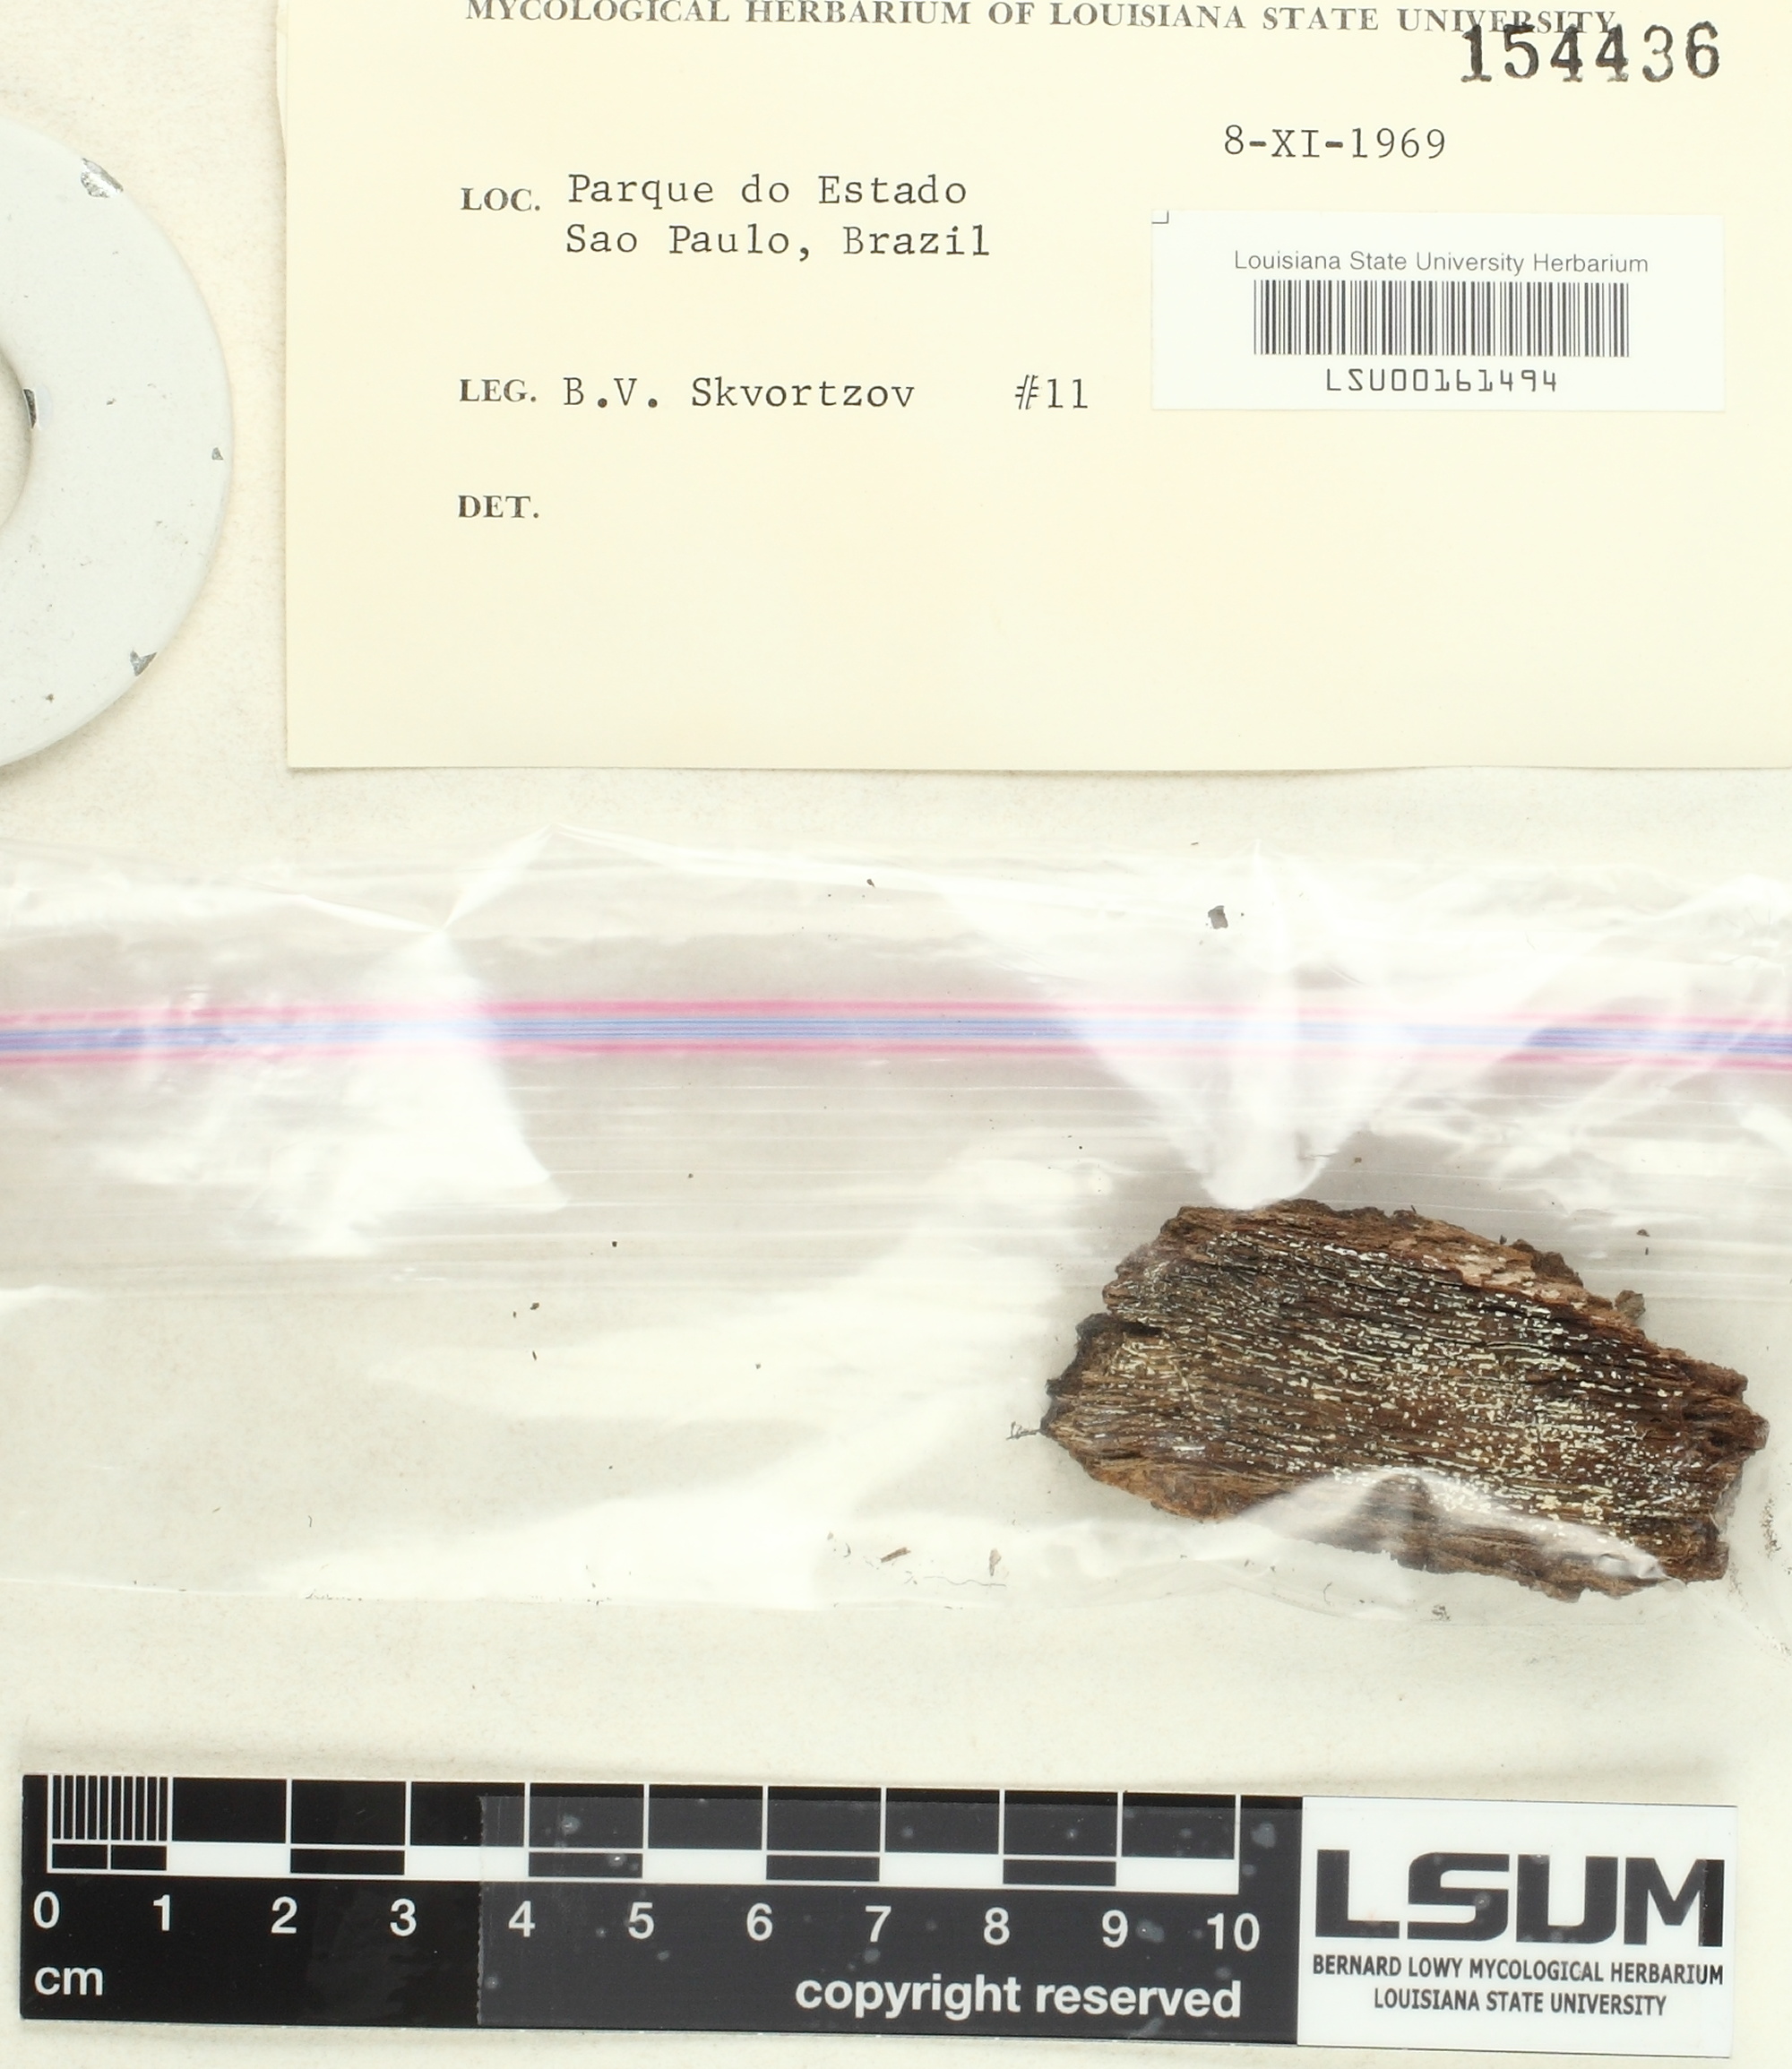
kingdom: Fungi
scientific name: Fungi
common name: Fungi
